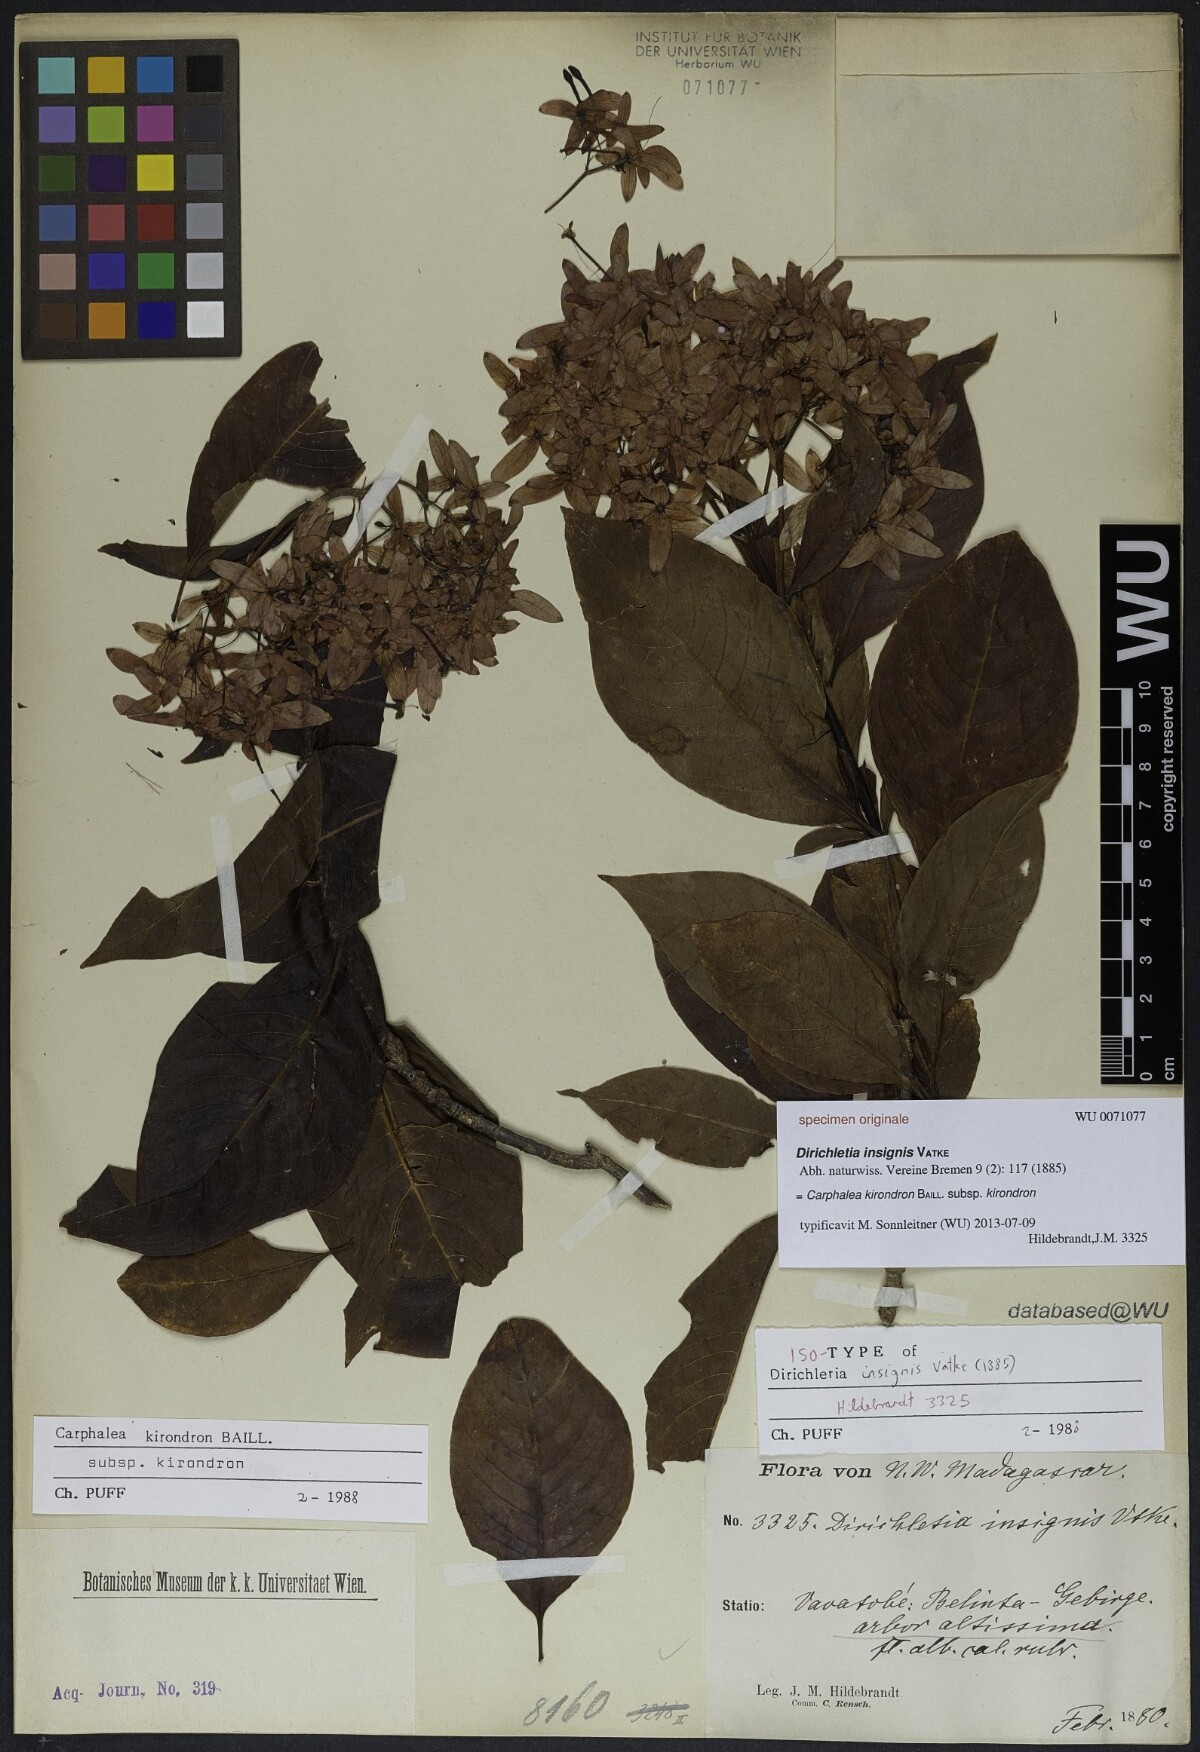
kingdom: Plantae
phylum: Tracheophyta
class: Magnoliopsida
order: Gentianales
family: Rubiaceae
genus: Paracarphalea
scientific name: Paracarphalea kirondron
